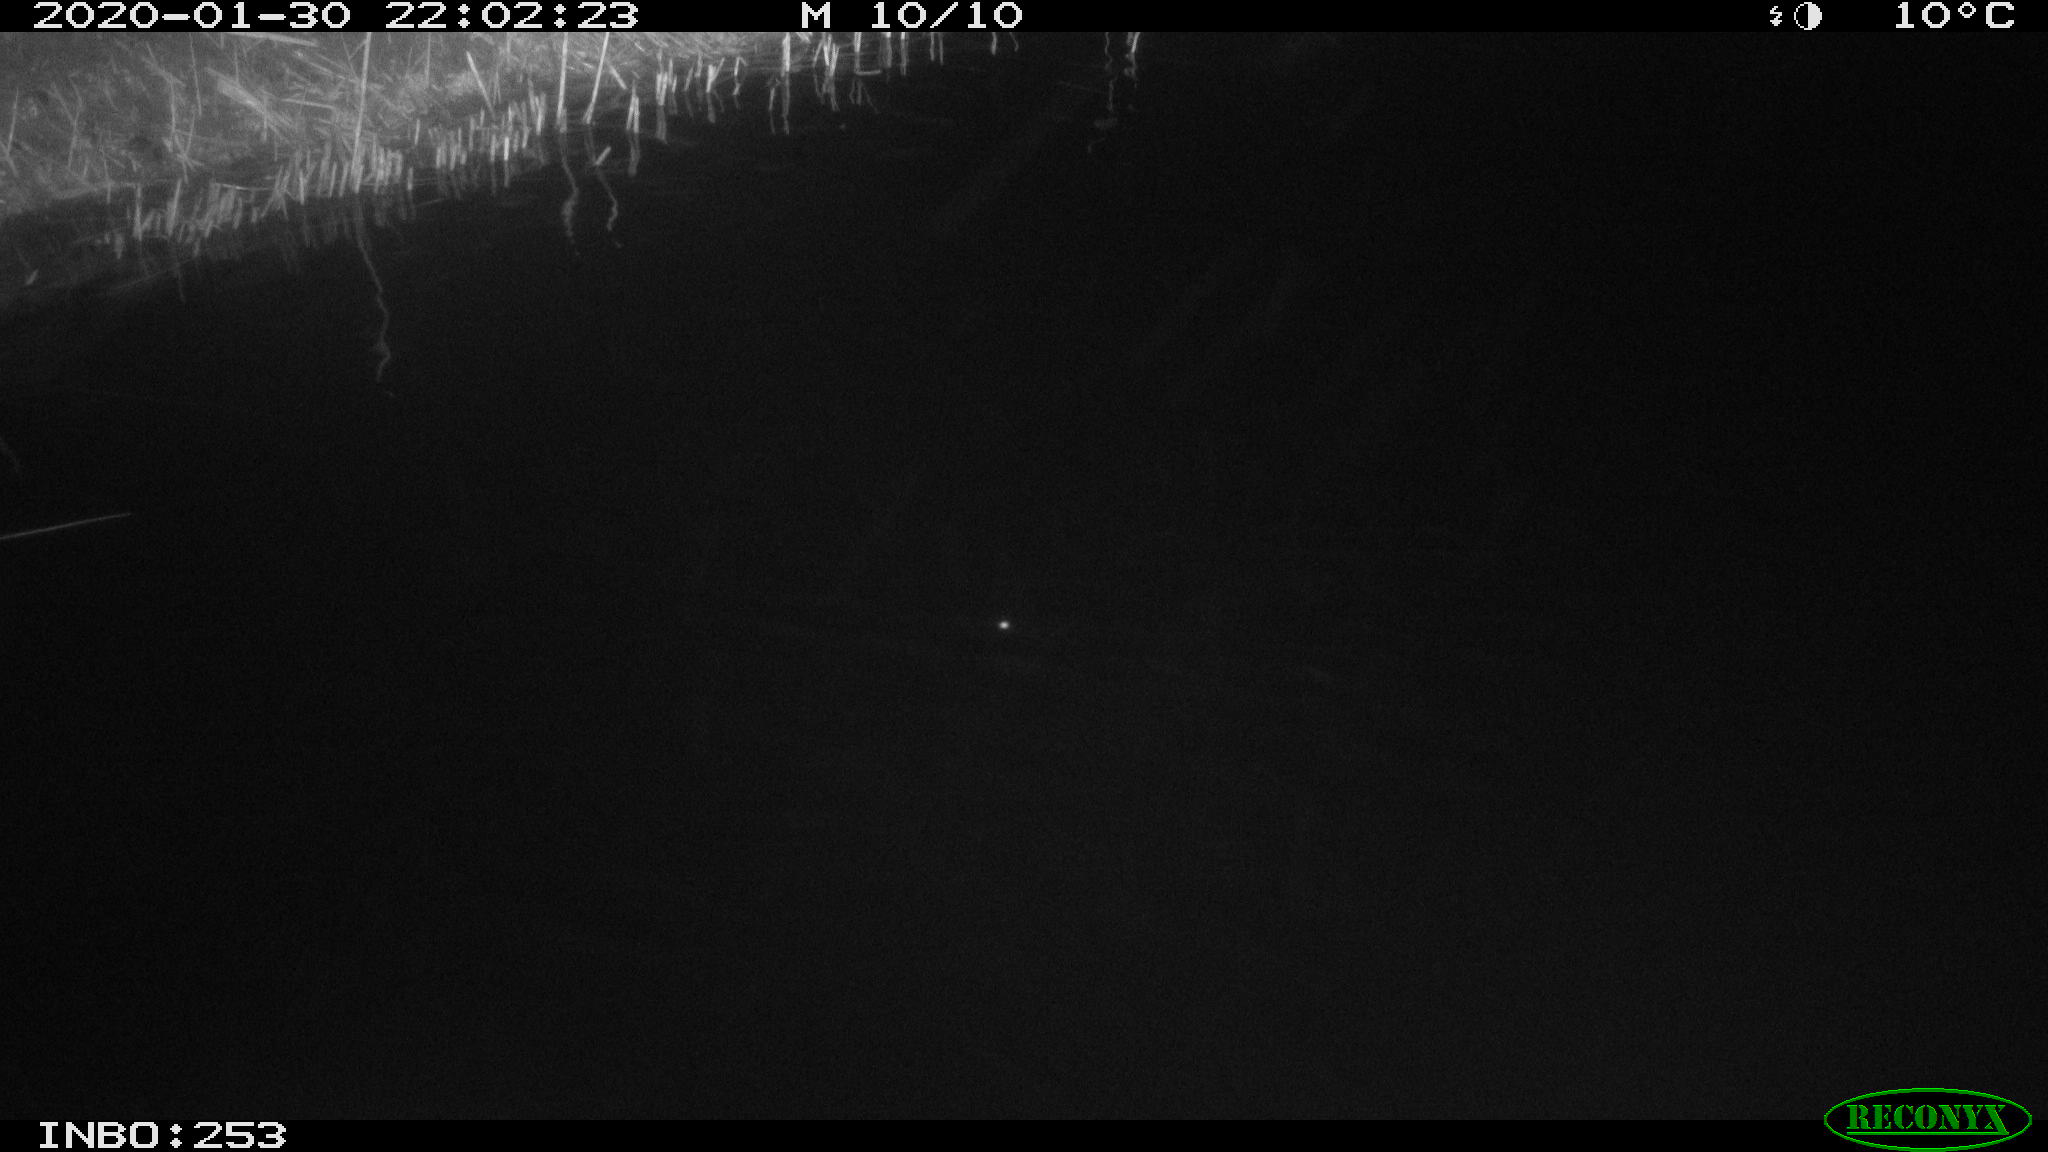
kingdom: Animalia
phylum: Chordata
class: Aves
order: Anseriformes
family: Anatidae
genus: Anas
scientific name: Anas platyrhynchos
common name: Mallard
